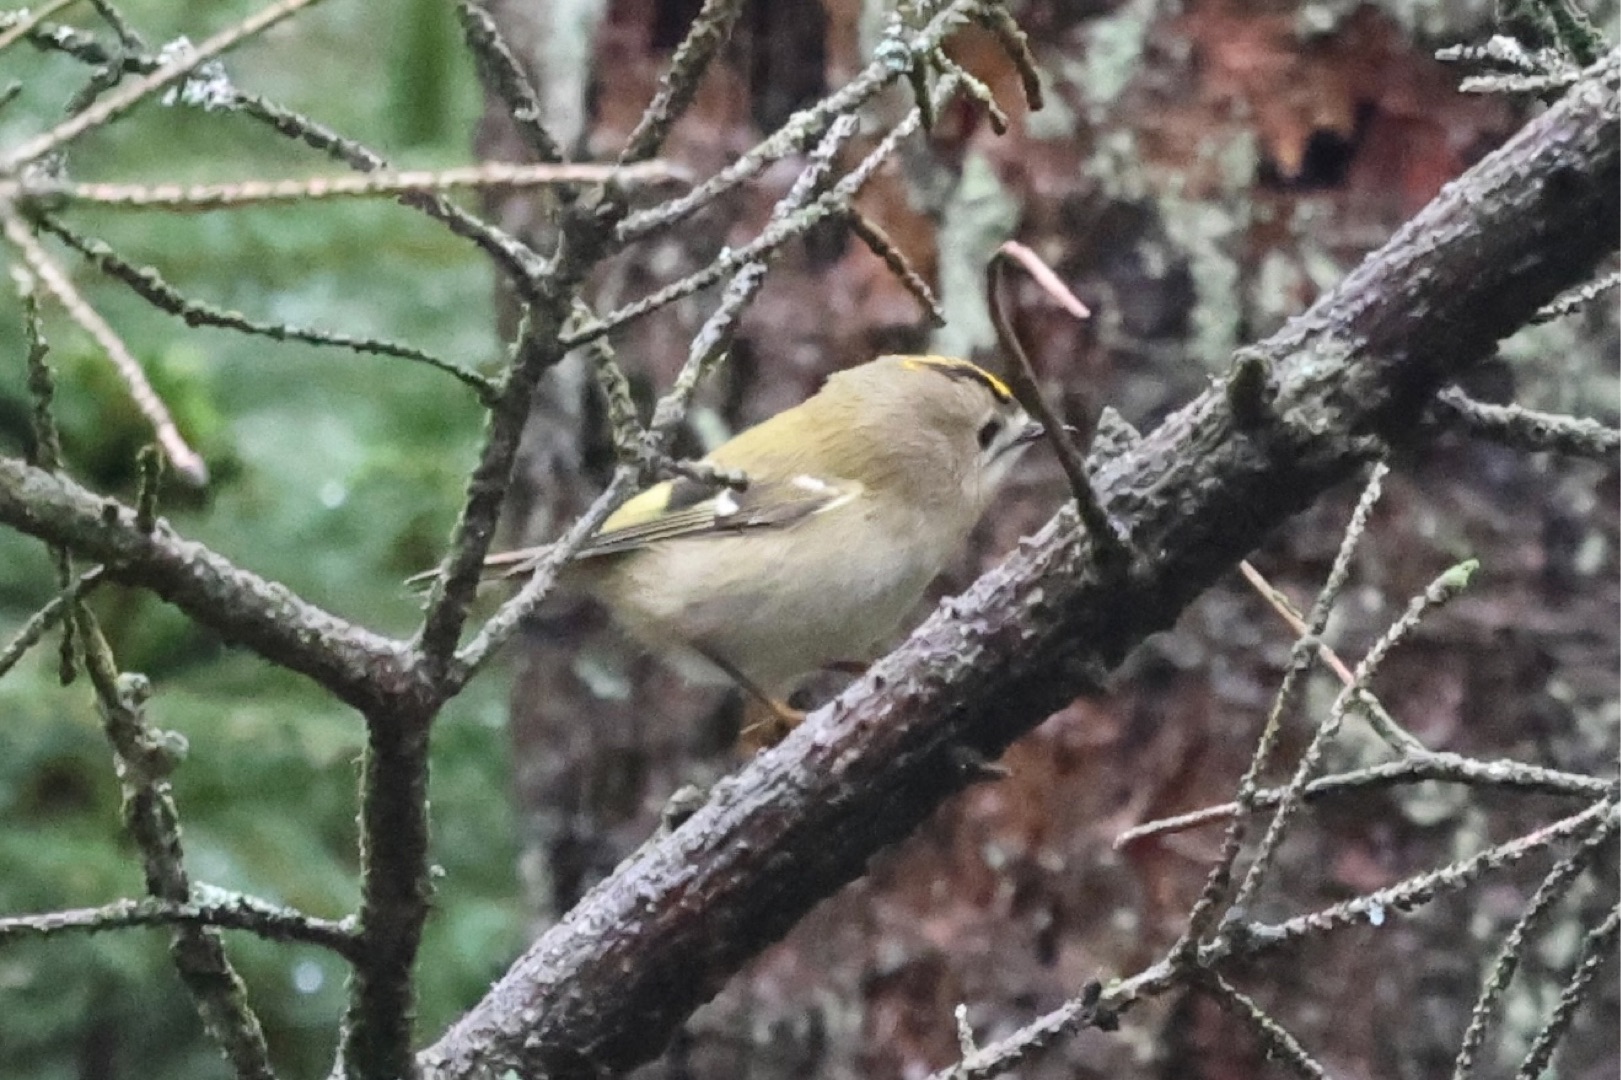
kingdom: Animalia
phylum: Chordata
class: Aves
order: Passeriformes
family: Regulidae
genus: Regulus
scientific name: Regulus regulus
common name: Fuglekonge
